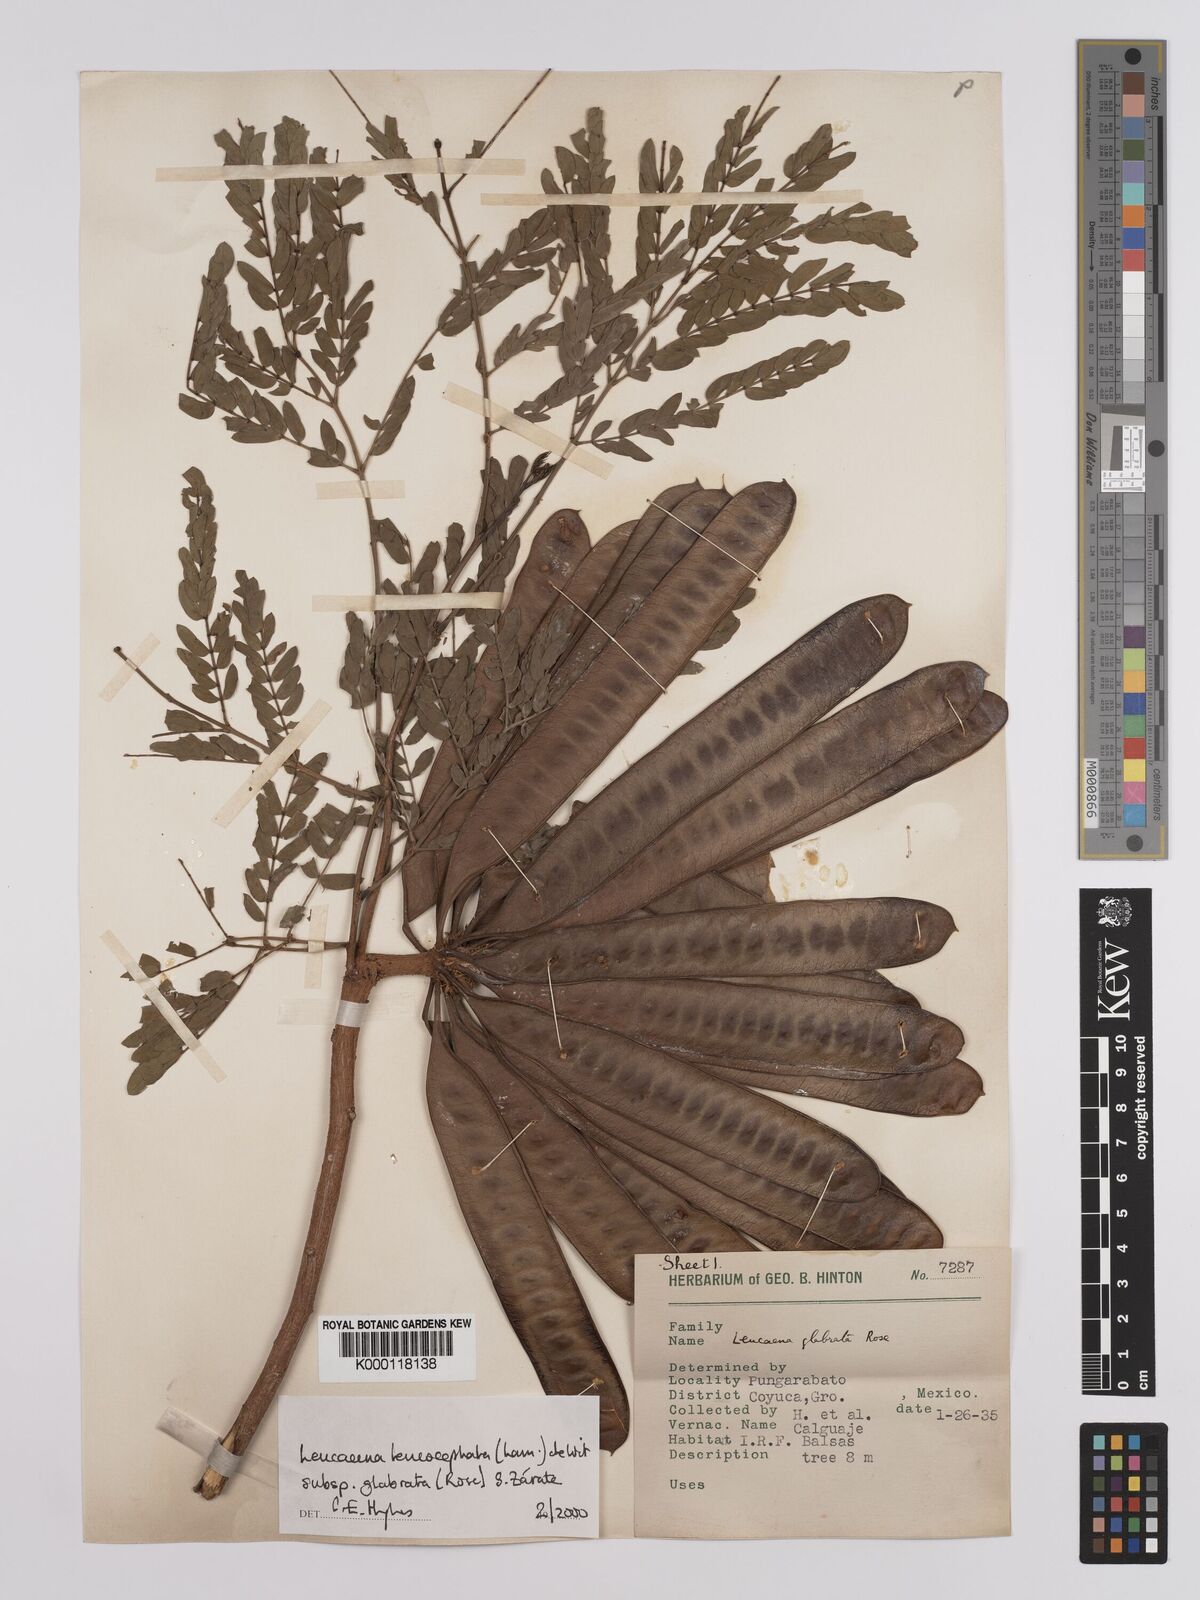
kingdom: Plantae
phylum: Tracheophyta
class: Magnoliopsida
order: Fabales
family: Fabaceae
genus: Leucaena
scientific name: Leucaena leucocephala
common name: White leadtree
